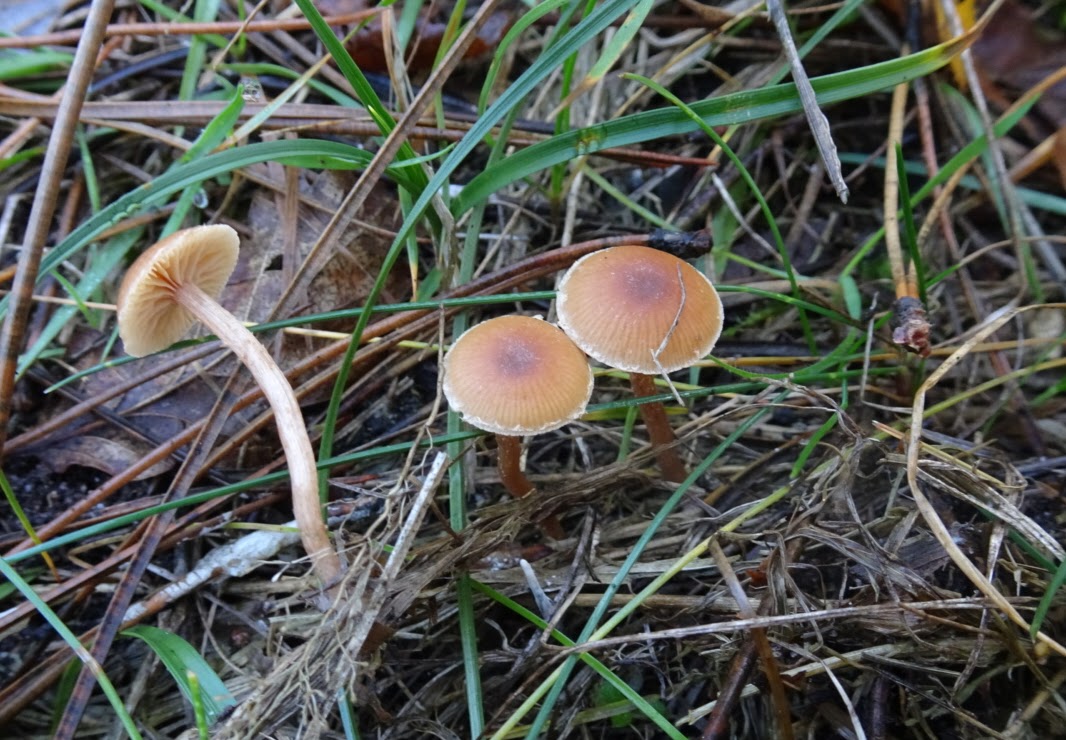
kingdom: Fungi
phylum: Basidiomycota
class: Agaricomycetes
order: Agaricales
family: Tubariaceae
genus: Tubaria
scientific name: Tubaria furfuracea
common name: kliddet fnughat
